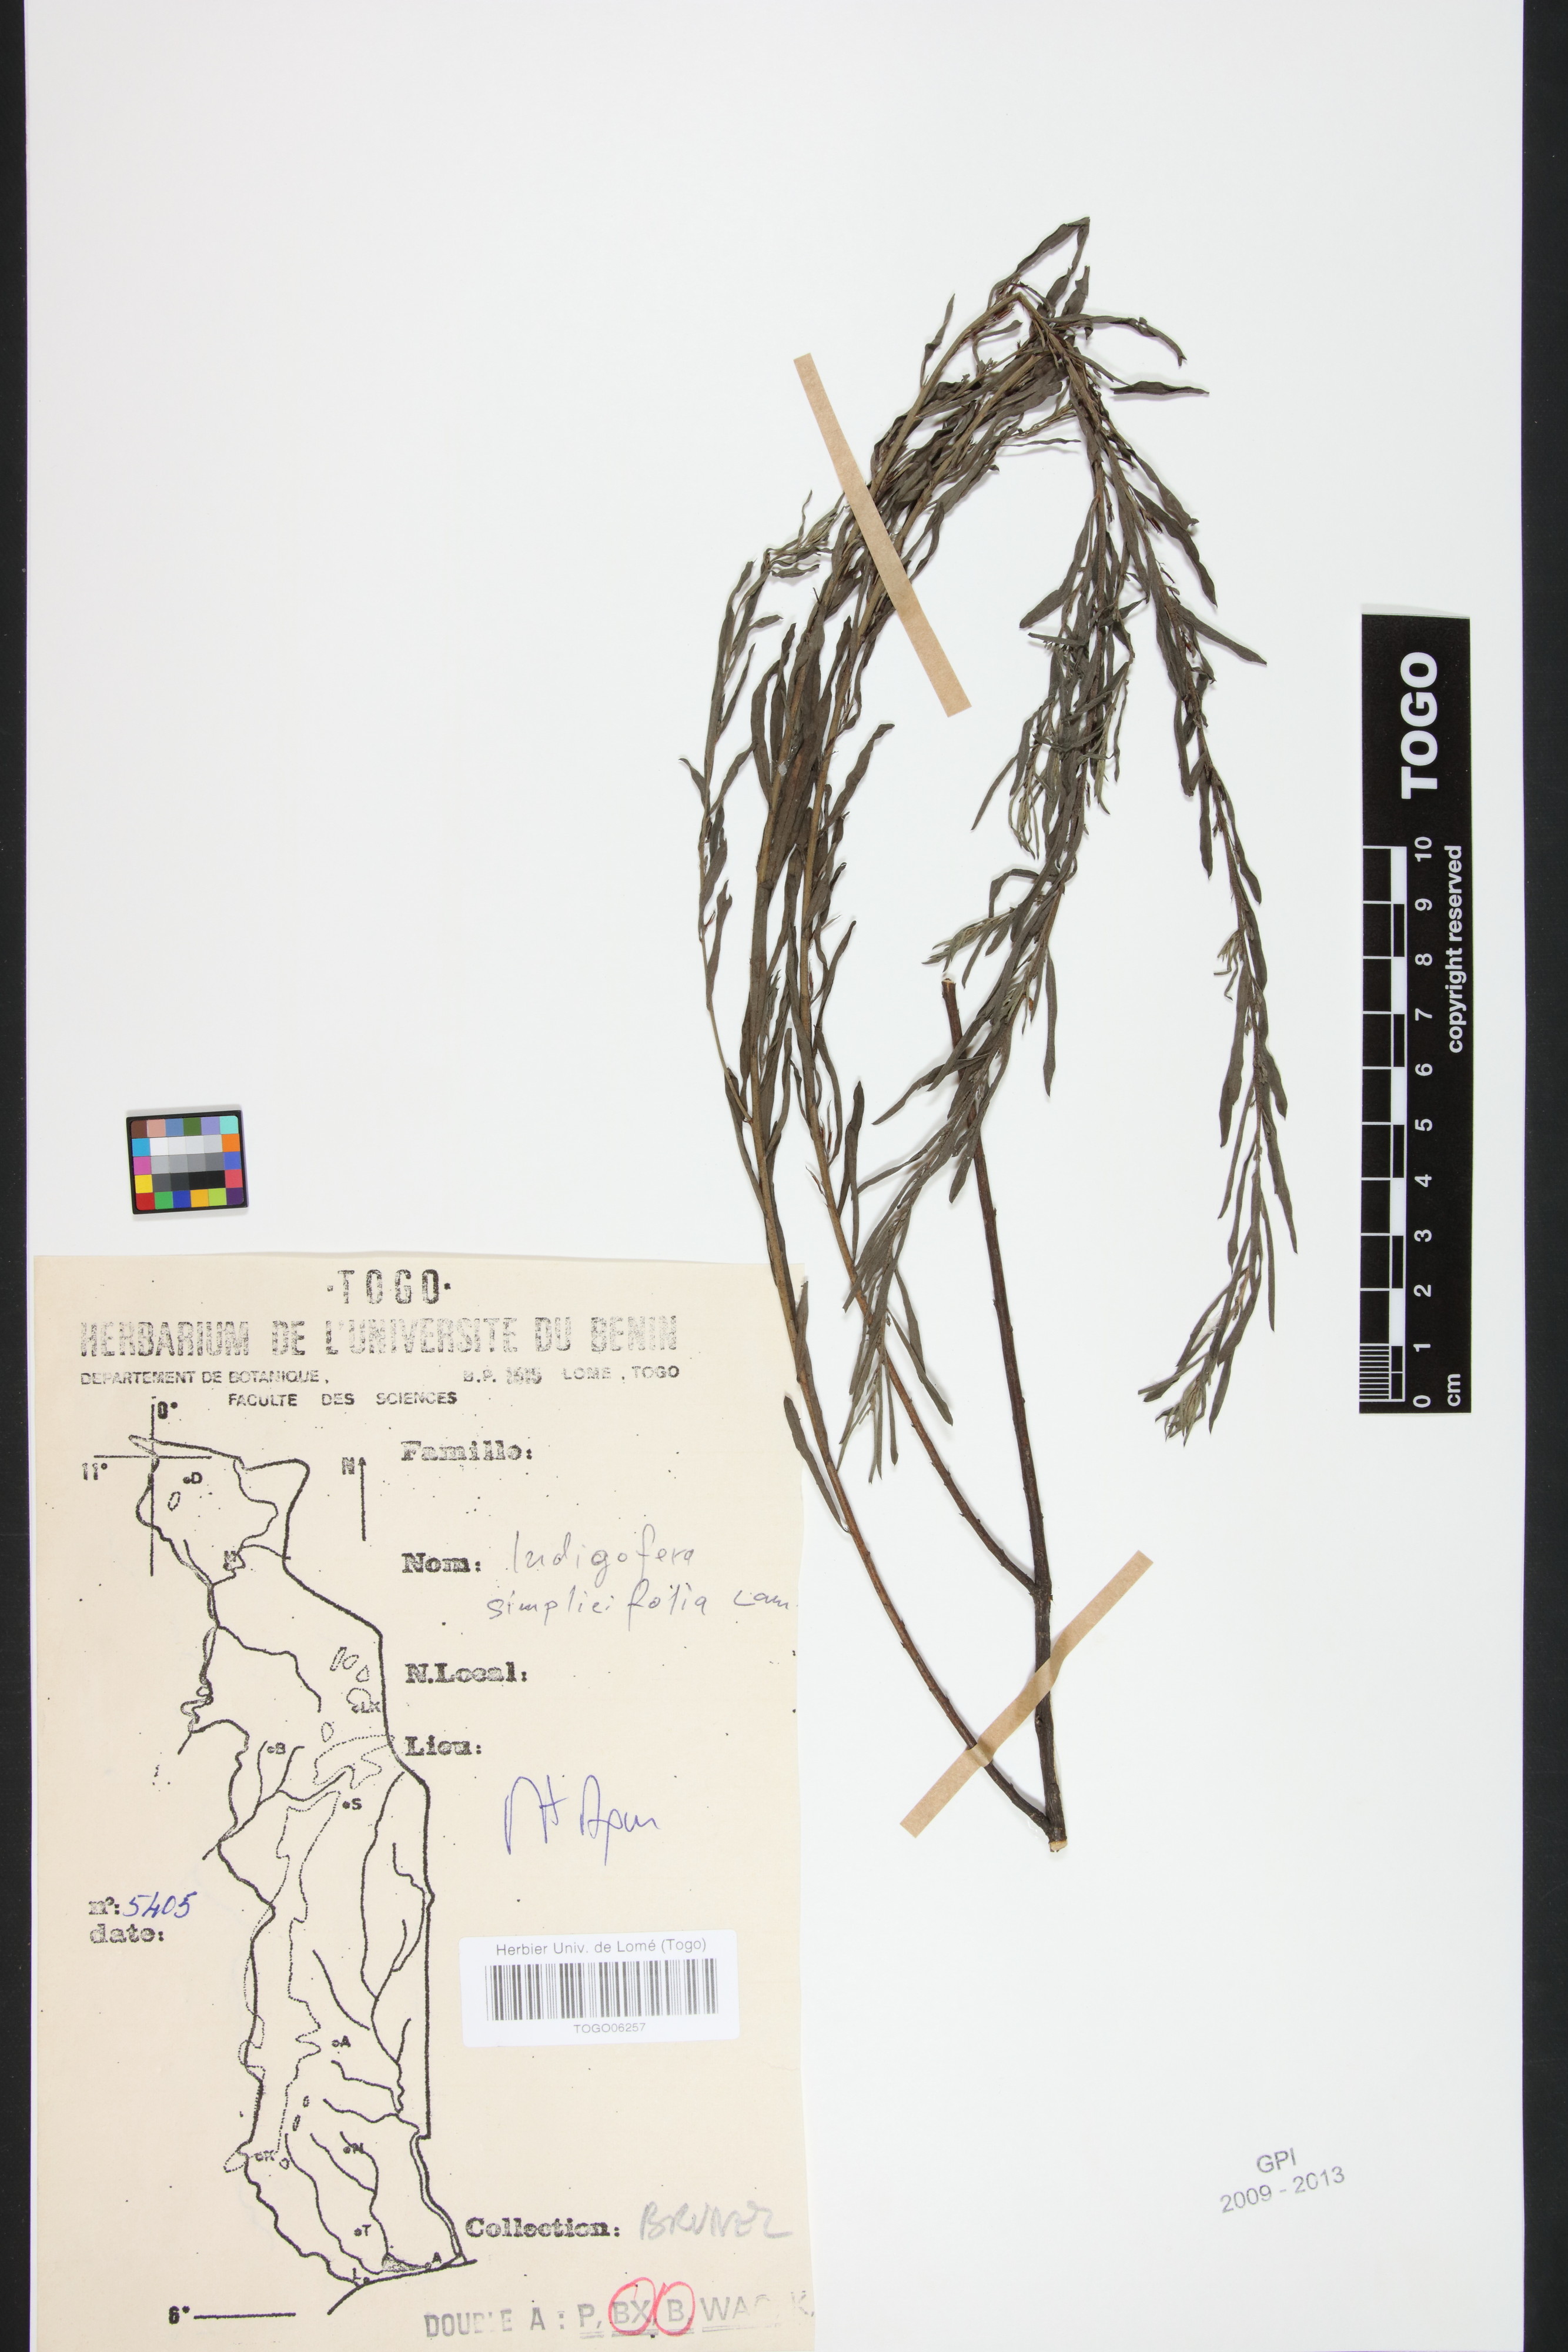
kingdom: Plantae
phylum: Tracheophyta
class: Magnoliopsida
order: Fabales
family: Fabaceae
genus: Indigofera
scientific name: Indigofera leprieurii
